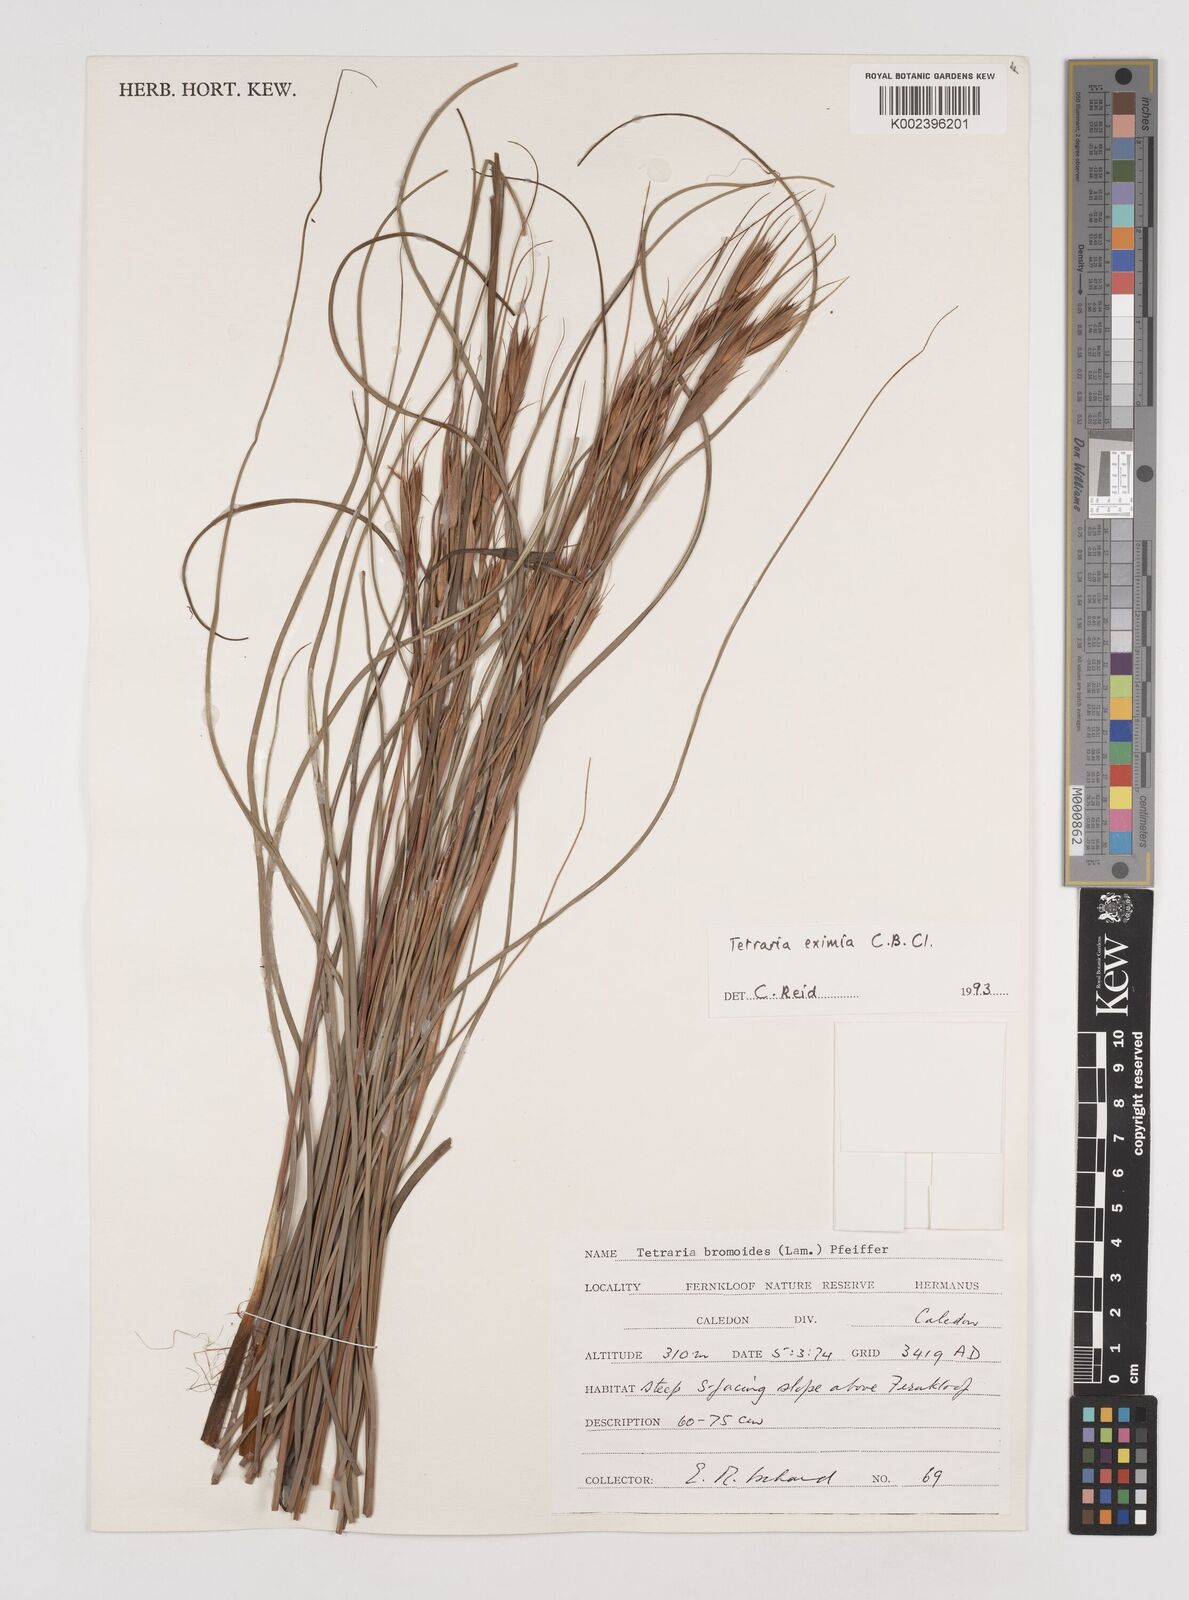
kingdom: Plantae
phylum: Tracheophyta
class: Liliopsida
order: Poales
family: Cyperaceae
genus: Tetraria
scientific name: Tetraria eximia
